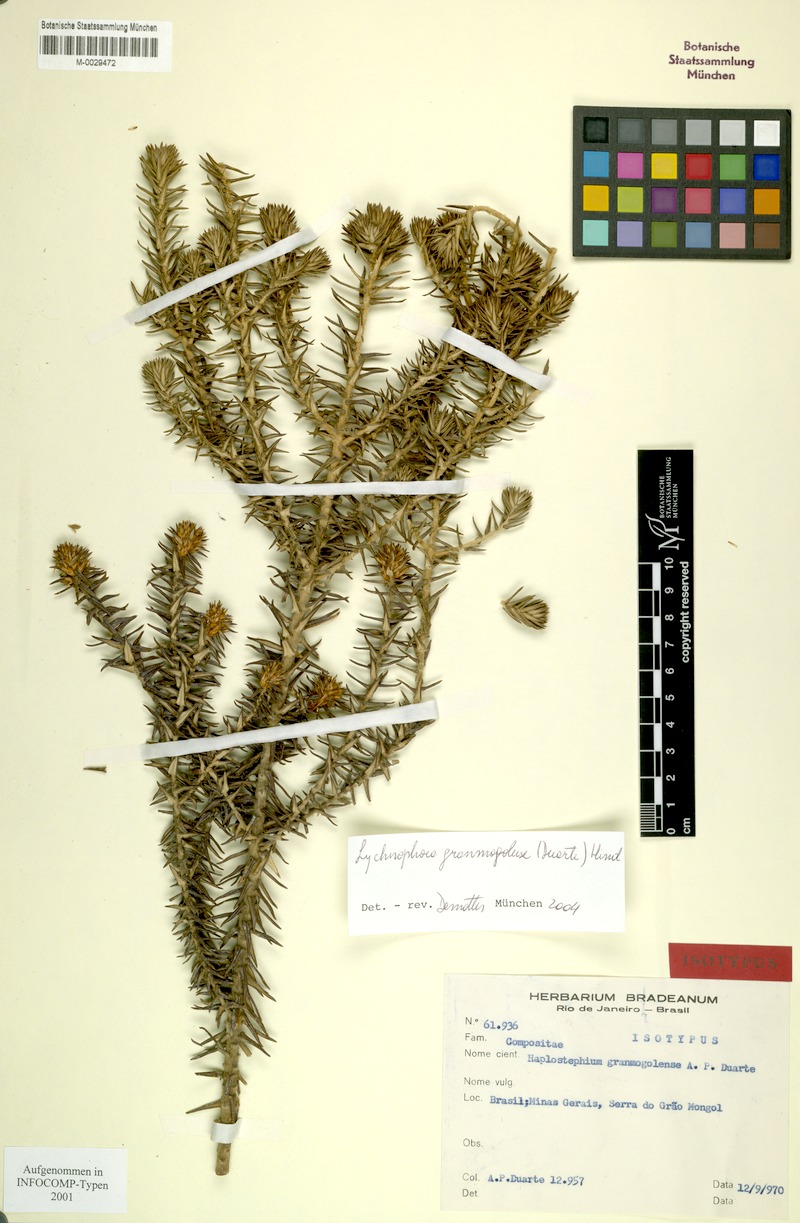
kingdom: Plantae
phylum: Tracheophyta
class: Magnoliopsida
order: Asterales
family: Asteraceae
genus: Lychnophora
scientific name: Lychnophora granmogolensis
